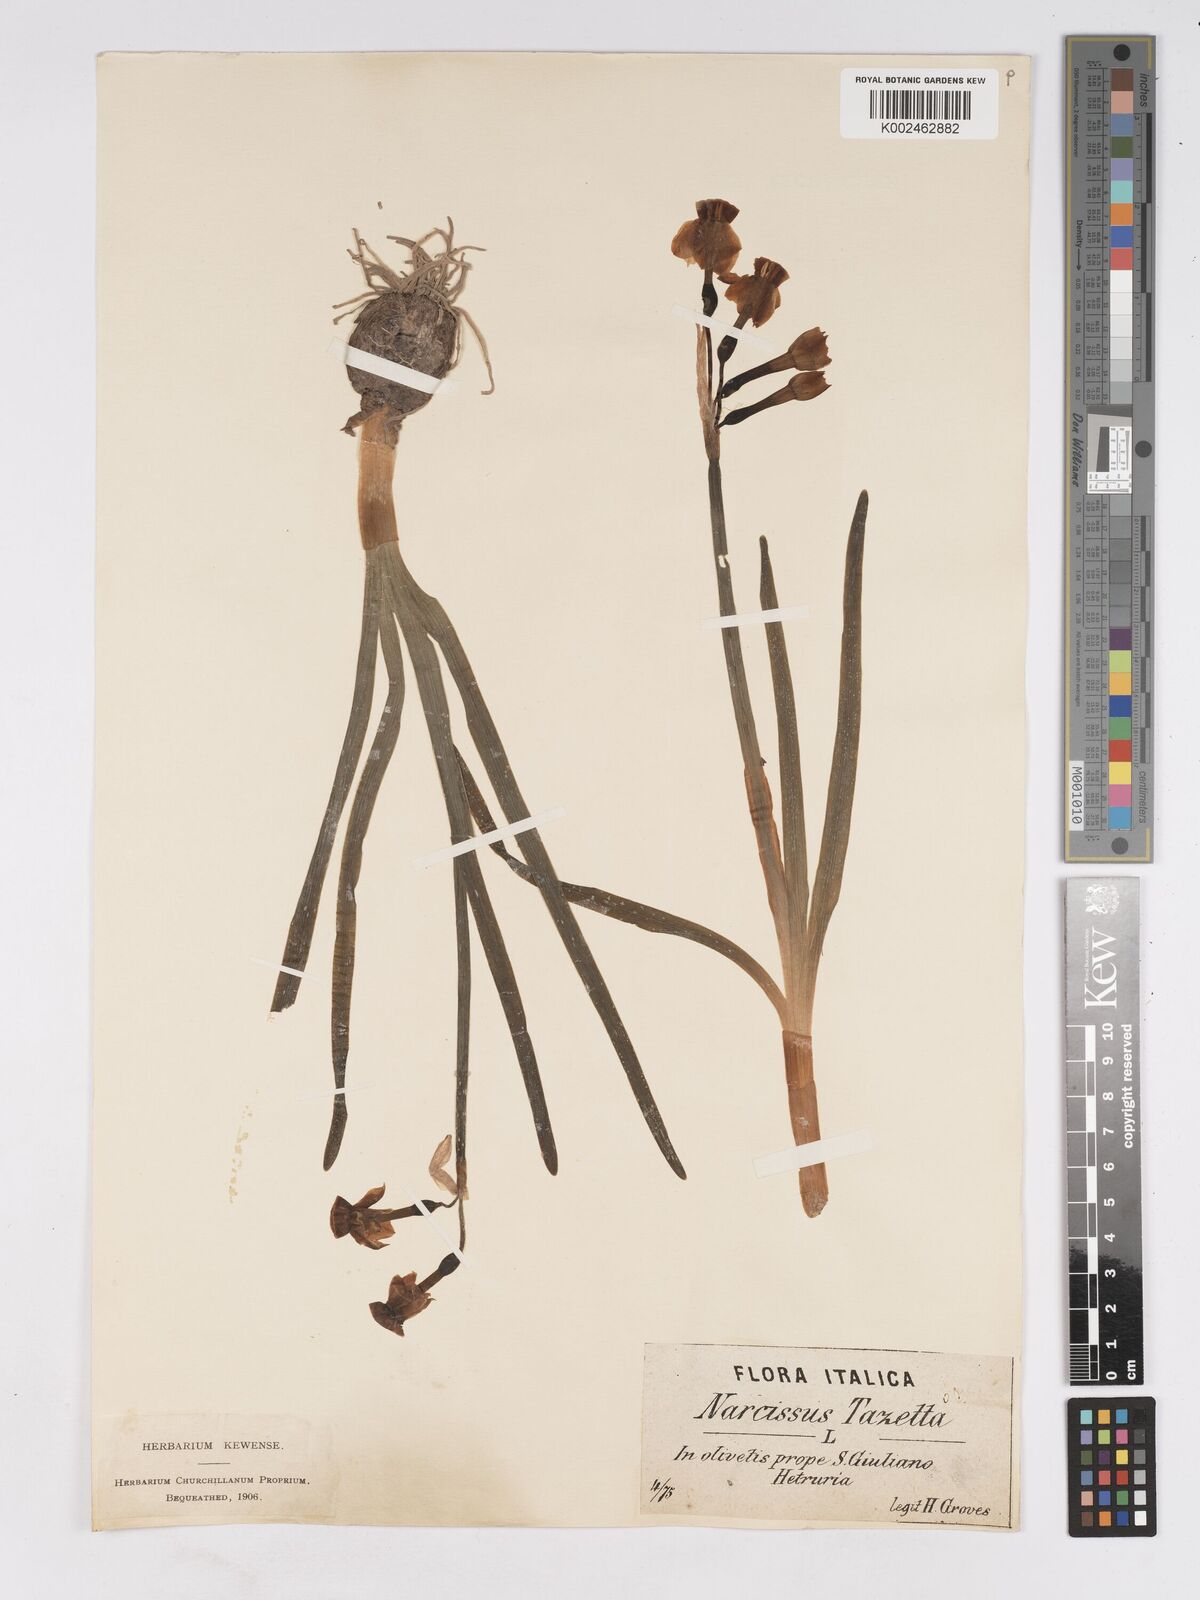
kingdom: Plantae
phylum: Tracheophyta
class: Liliopsida
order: Asparagales
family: Amaryllidaceae
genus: Narcissus
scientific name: Narcissus
